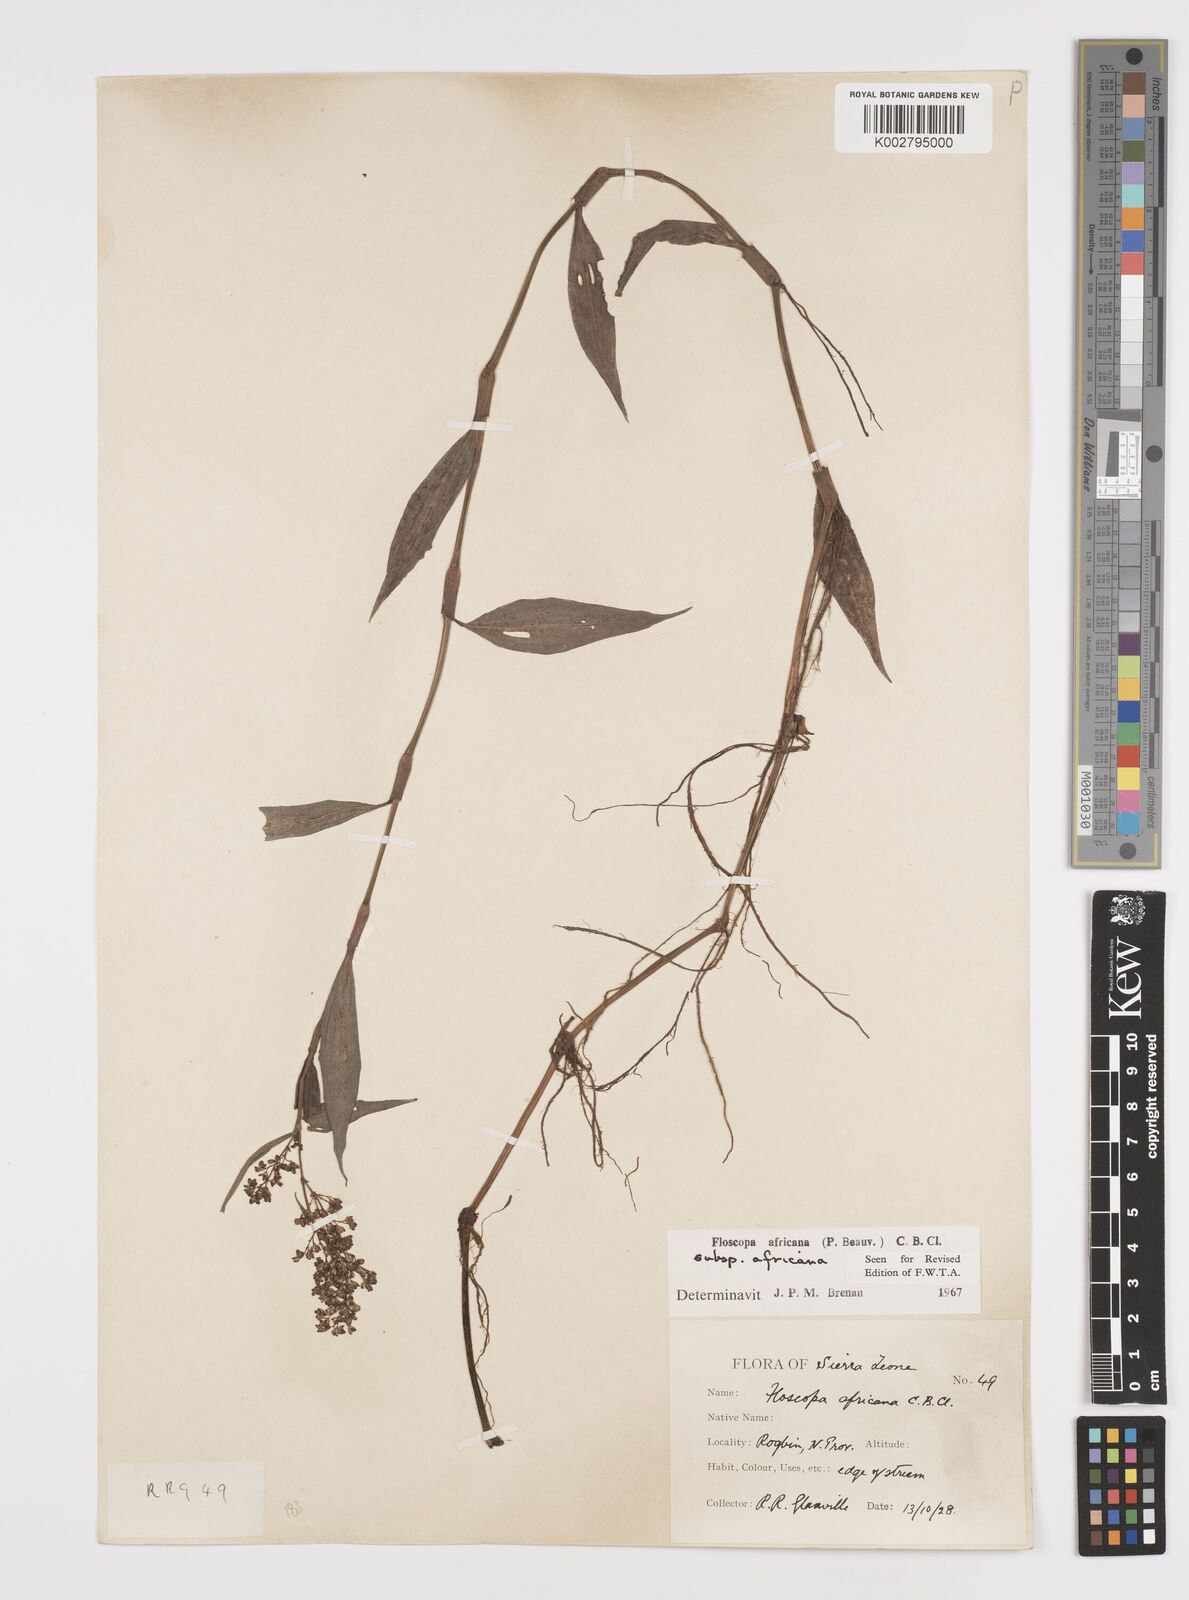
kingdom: Plantae
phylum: Tracheophyta
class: Liliopsida
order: Commelinales
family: Commelinaceae
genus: Floscopa
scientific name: Floscopa africana
